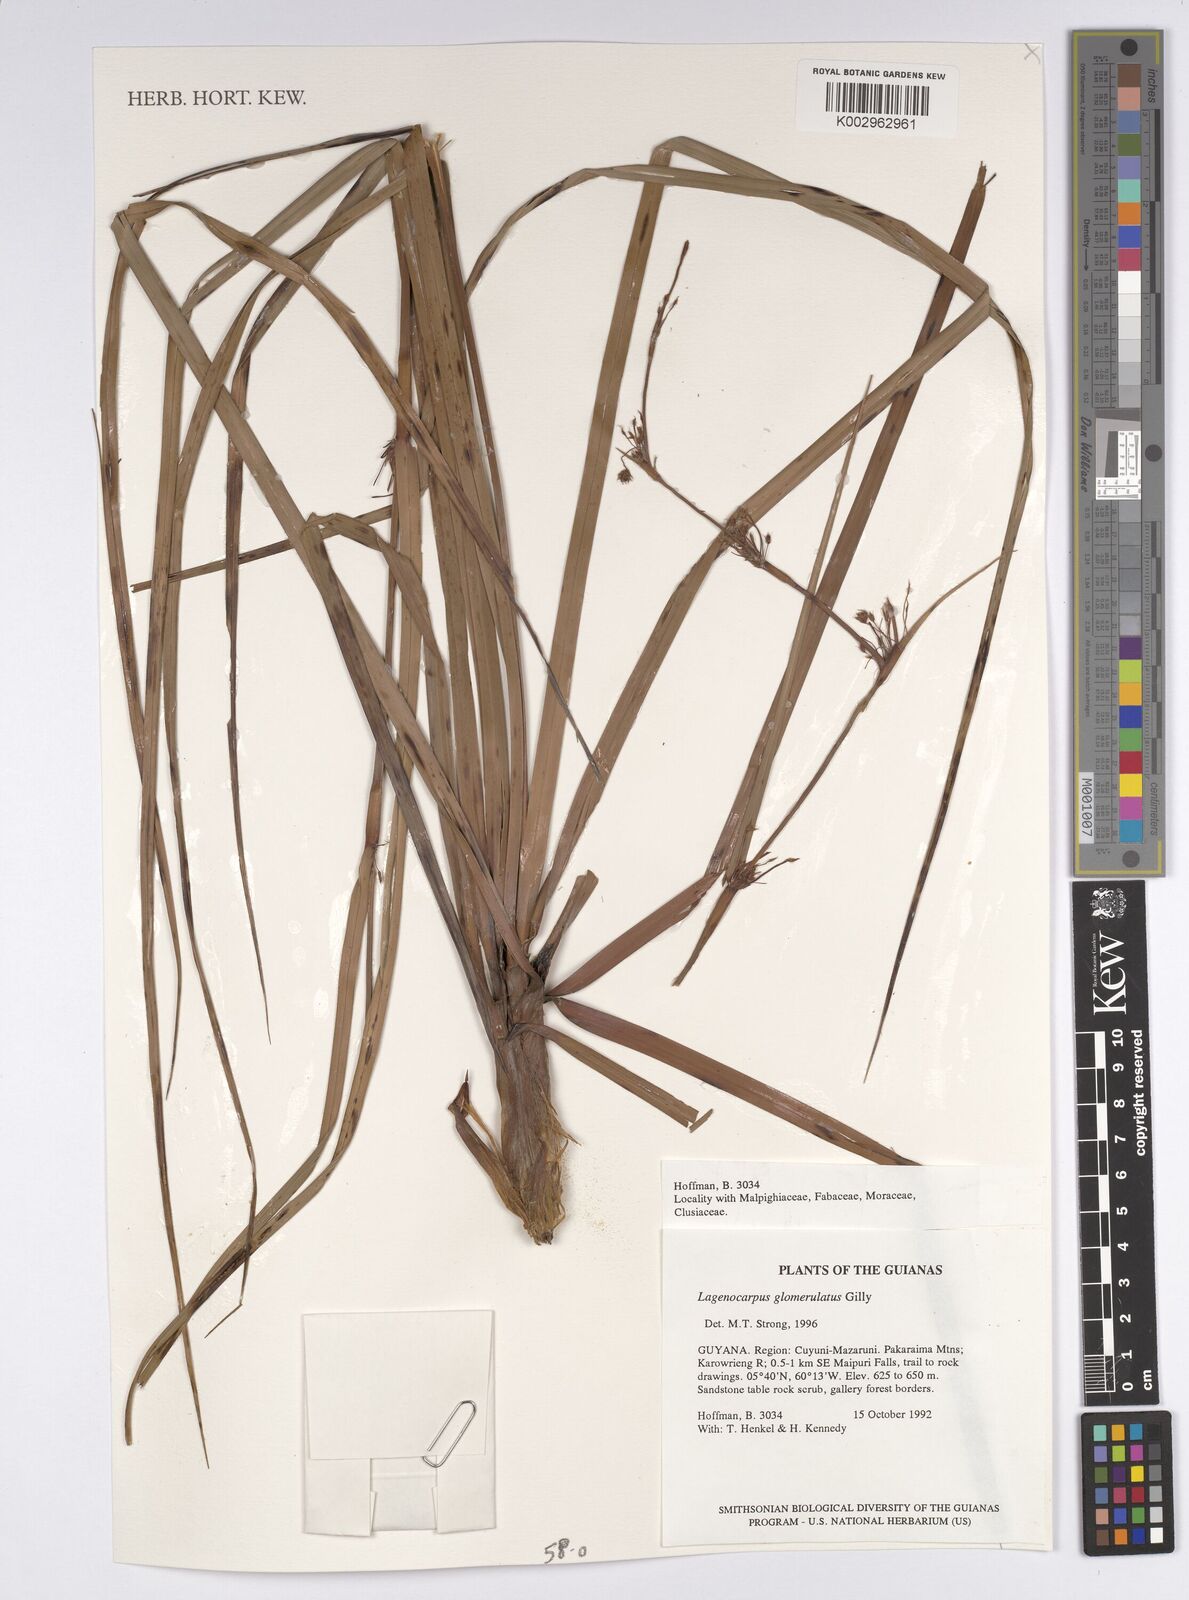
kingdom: Plantae
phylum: Tracheophyta
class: Liliopsida
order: Poales
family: Cyperaceae
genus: Lagenocarpus
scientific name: Lagenocarpus glomerulatus
